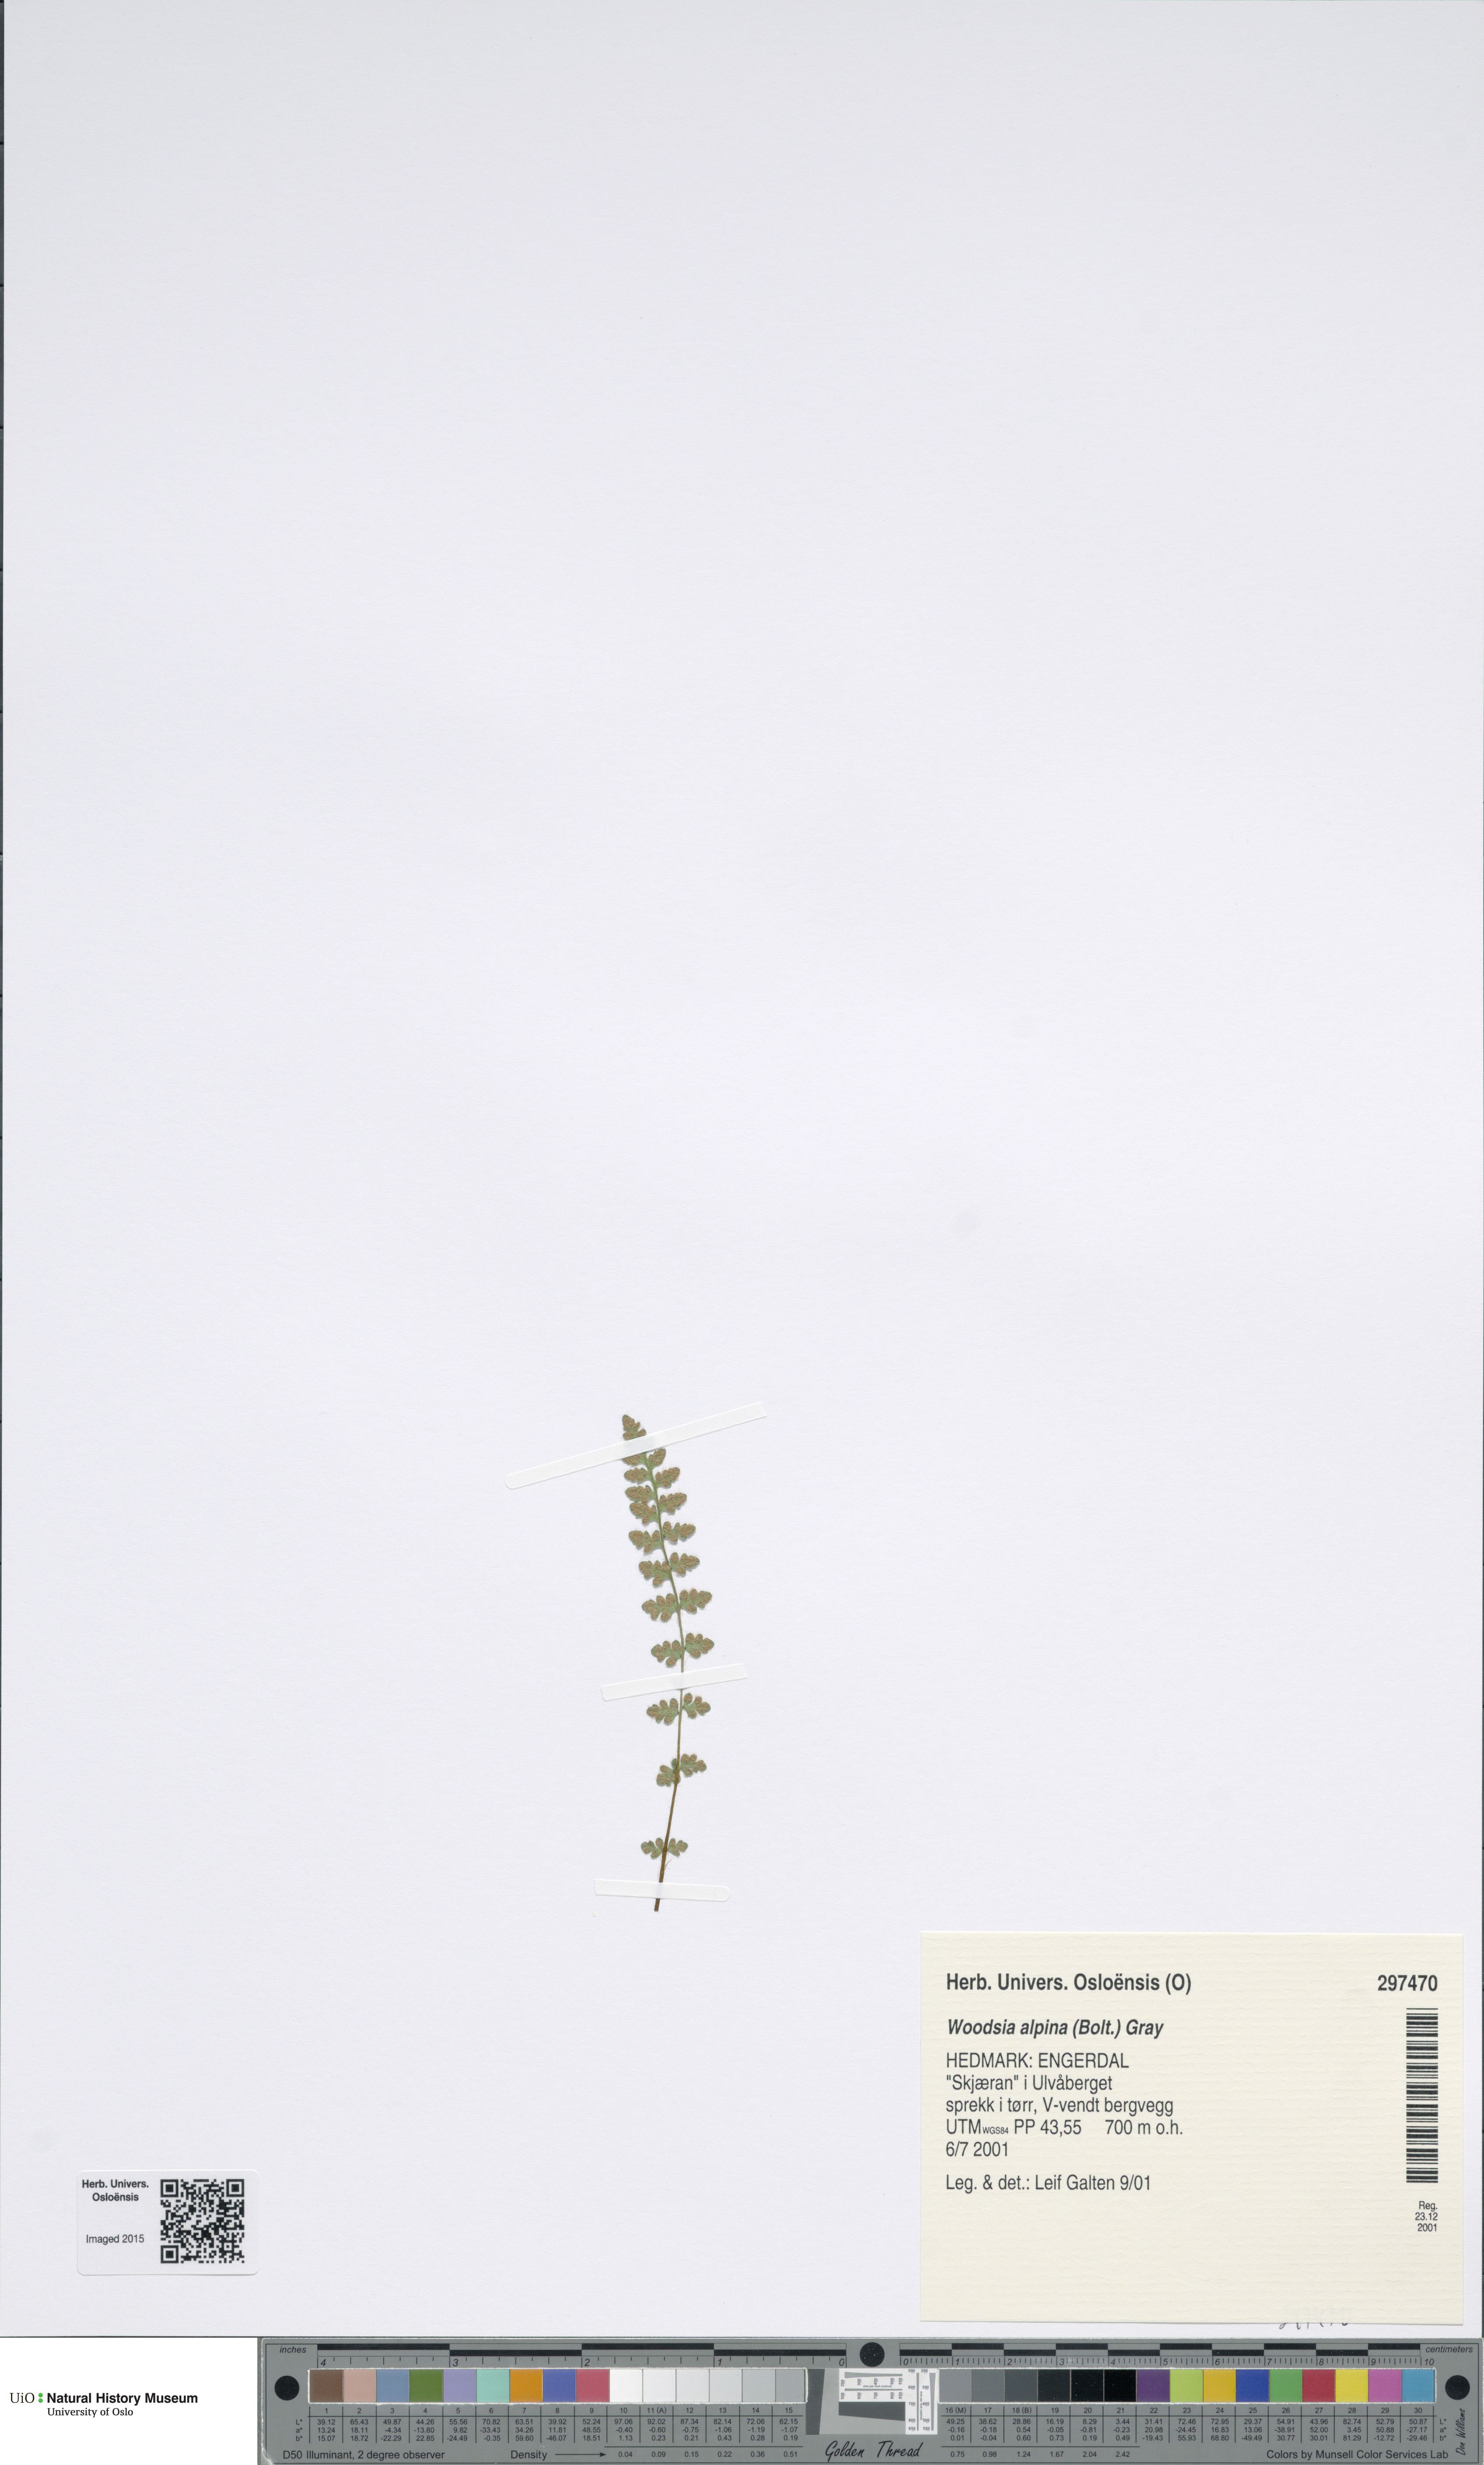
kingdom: Plantae
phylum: Tracheophyta
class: Polypodiopsida
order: Polypodiales
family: Woodsiaceae
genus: Woodsia
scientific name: Woodsia alpina
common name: Alpine woodsia
